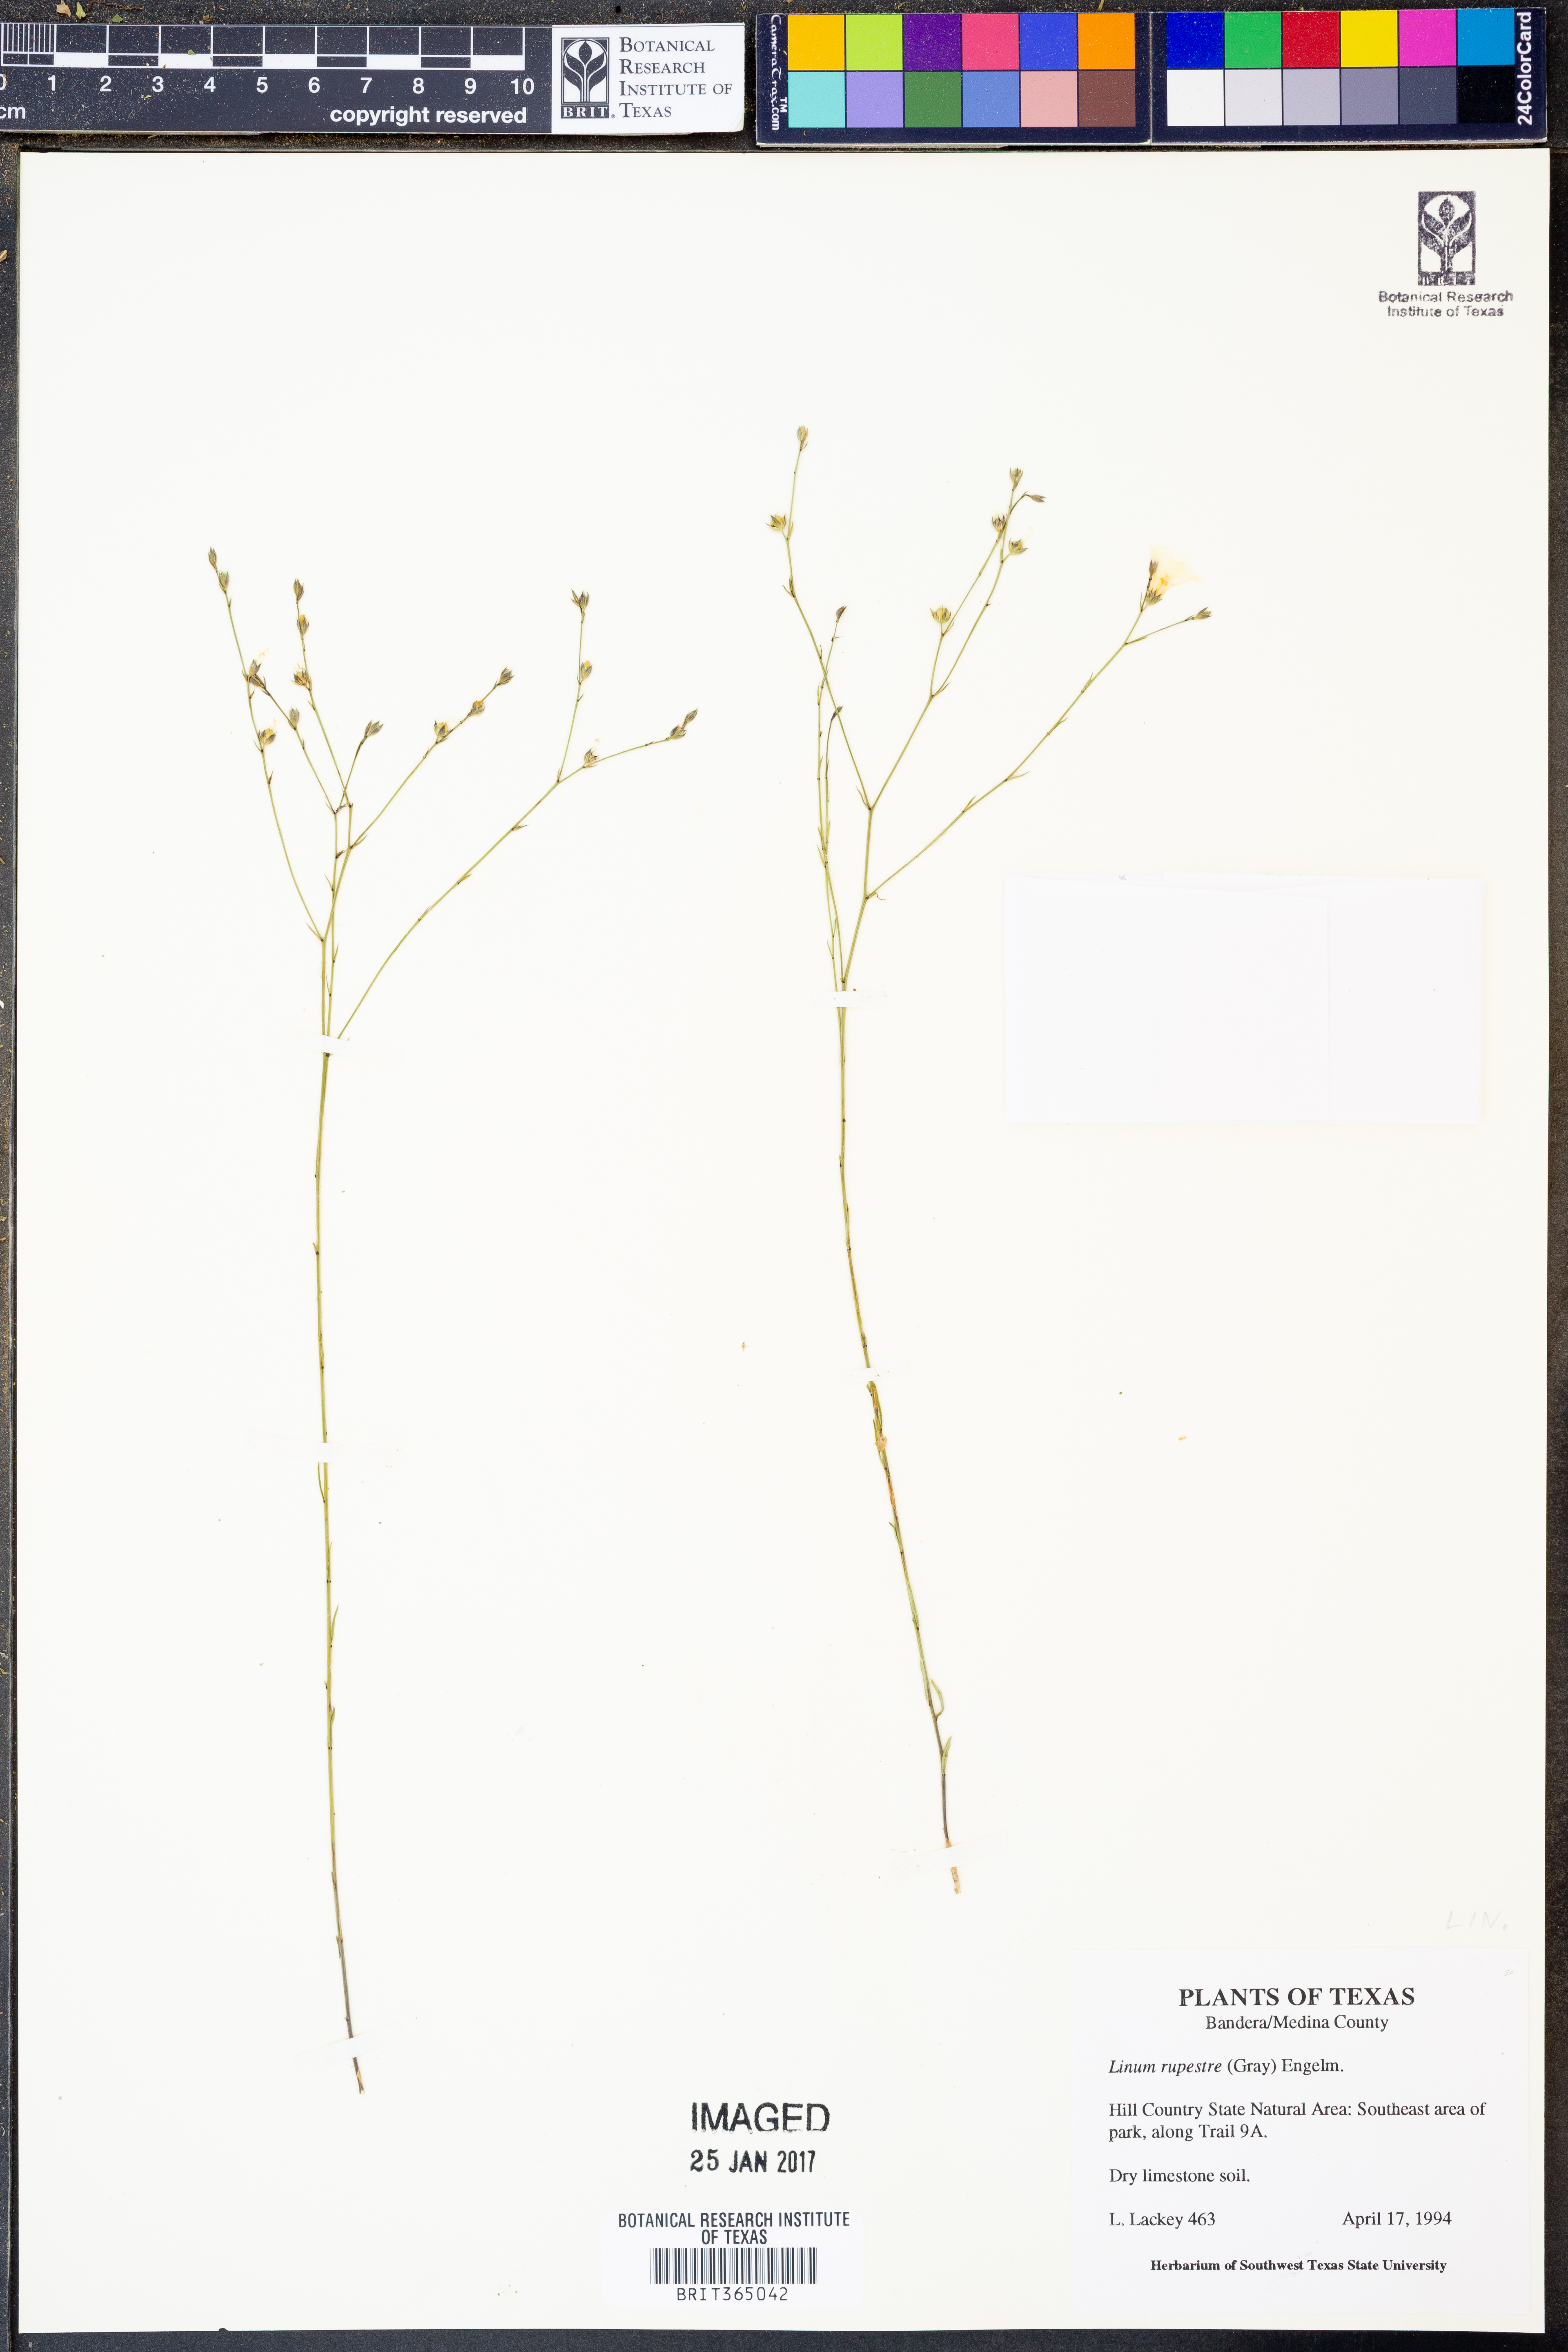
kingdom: Plantae
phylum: Tracheophyta
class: Magnoliopsida
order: Malpighiales
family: Linaceae
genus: Linum
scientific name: Linum rupestre
